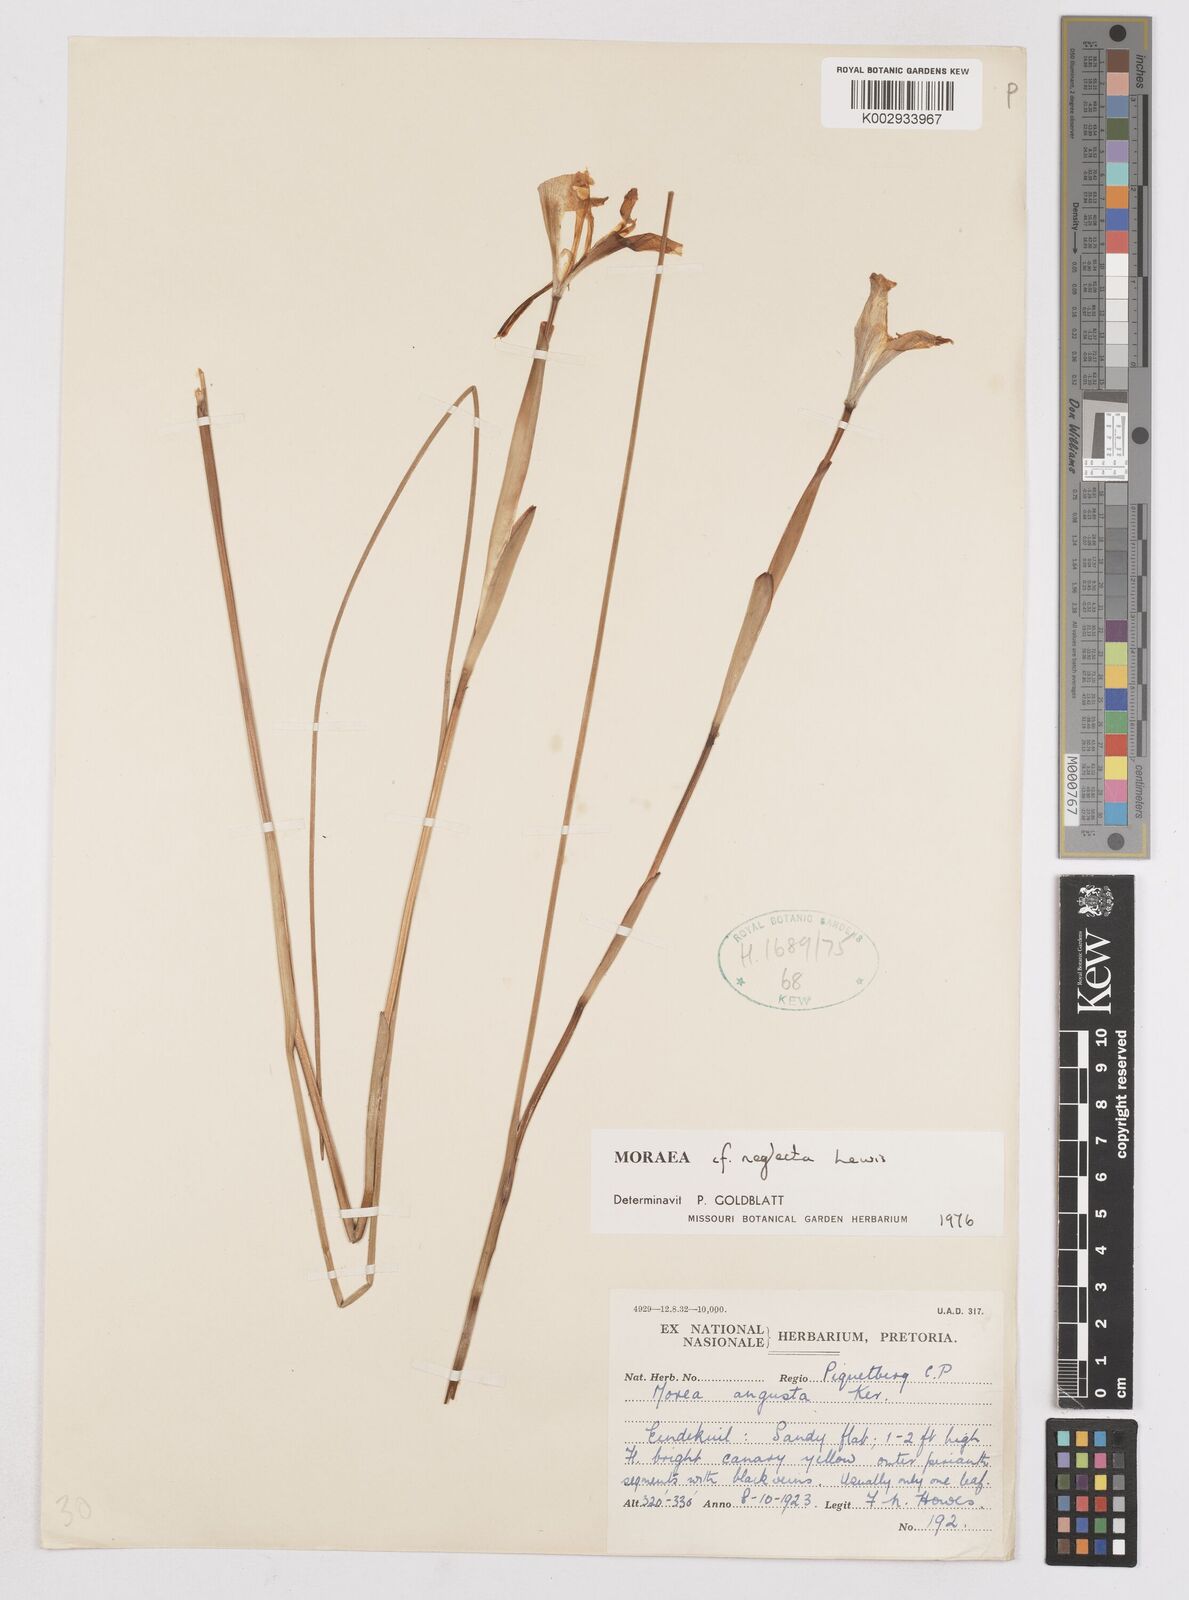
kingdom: Plantae
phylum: Tracheophyta
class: Liliopsida
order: Asparagales
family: Iridaceae
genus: Moraea
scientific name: Moraea neglecta
